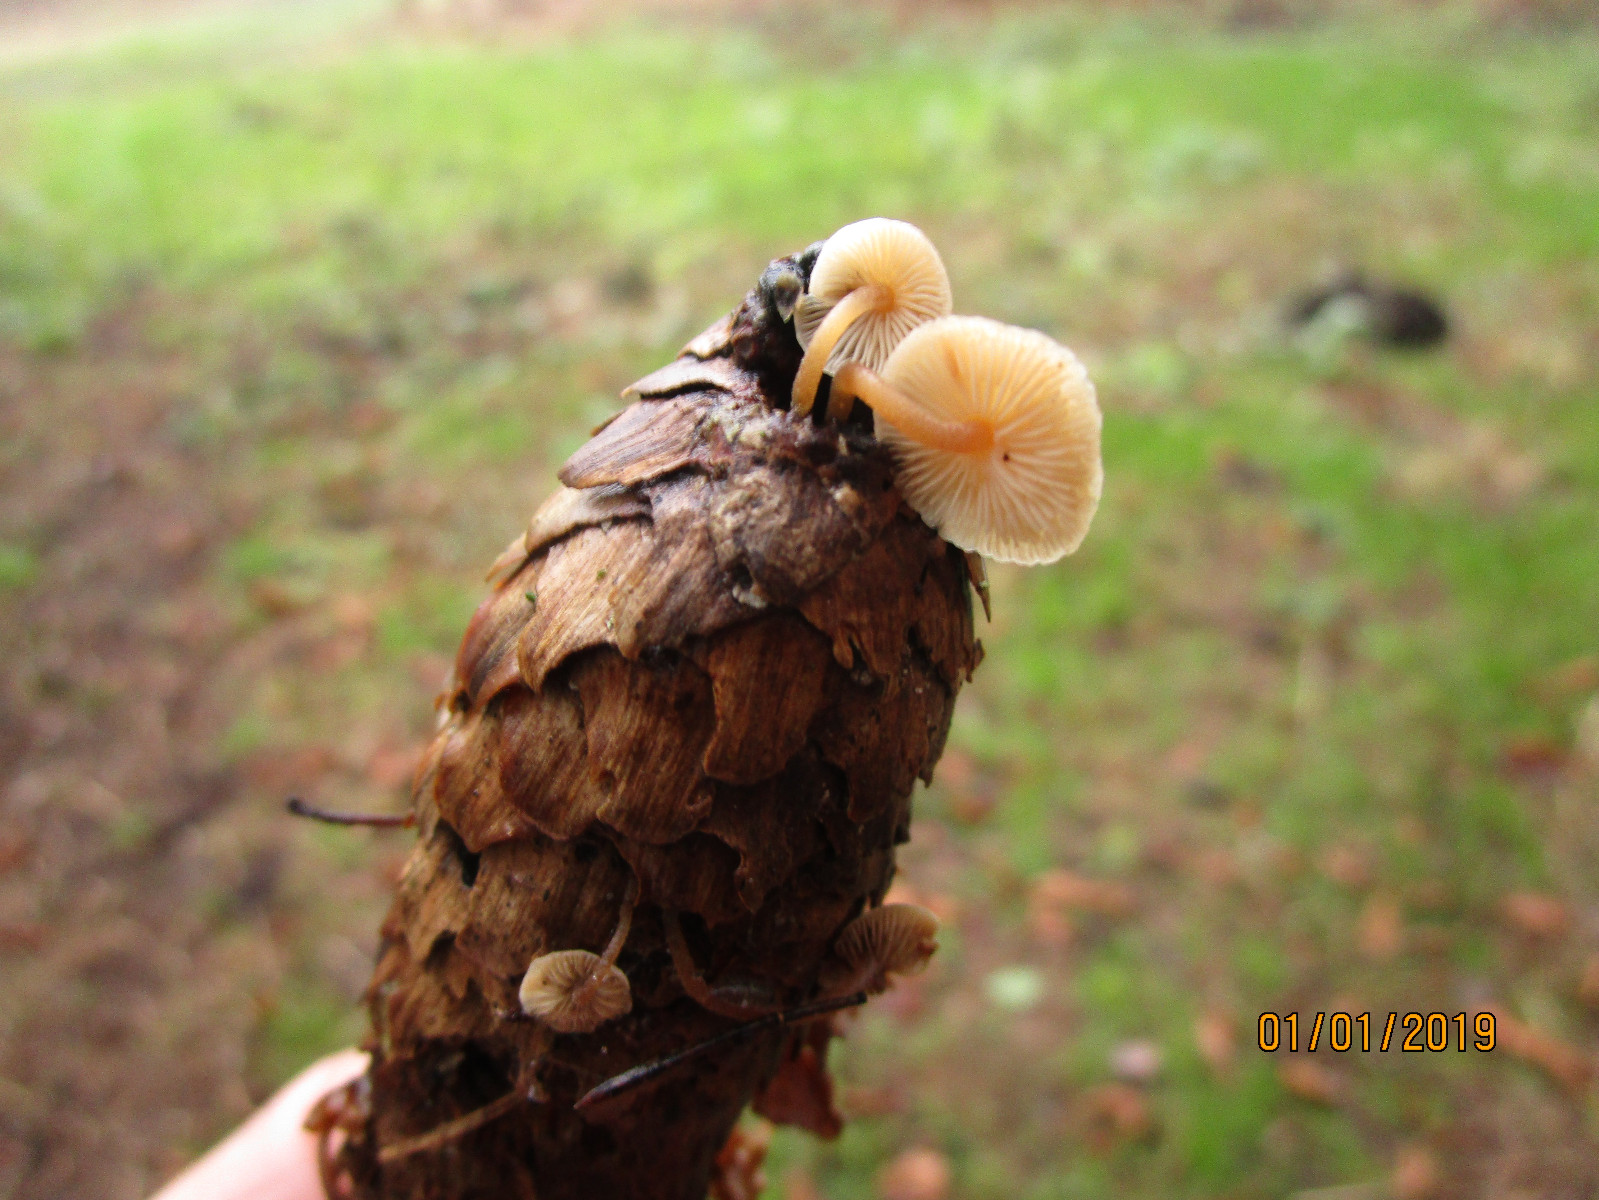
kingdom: Fungi
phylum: Basidiomycota
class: Agaricomycetes
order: Agaricales
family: Physalacriaceae
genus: Strobilurus
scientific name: Strobilurus esculentus
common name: gran-koglehat
